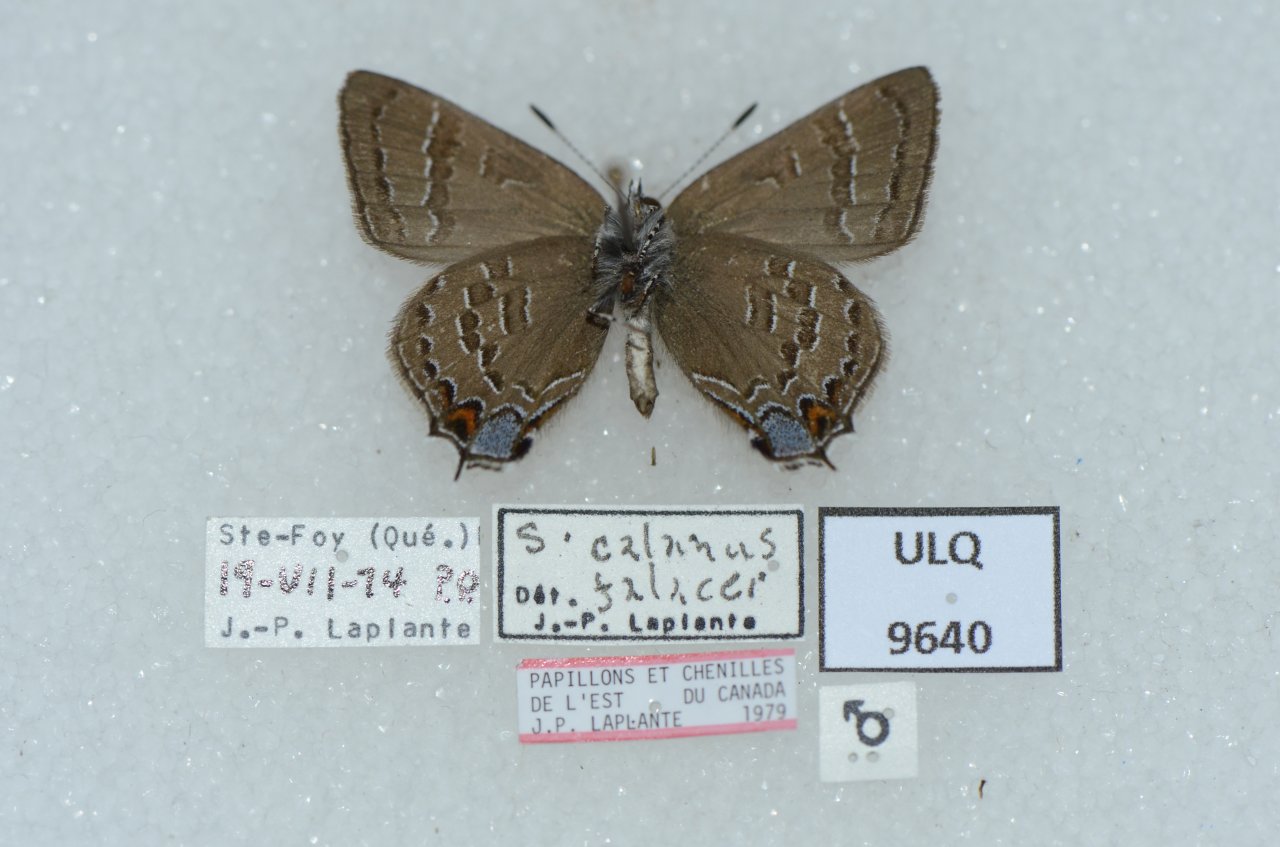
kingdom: Animalia
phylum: Arthropoda
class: Insecta
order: Lepidoptera
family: Lycaenidae
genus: Satyrium
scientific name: Satyrium calanus
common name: Banded Hairstreak
